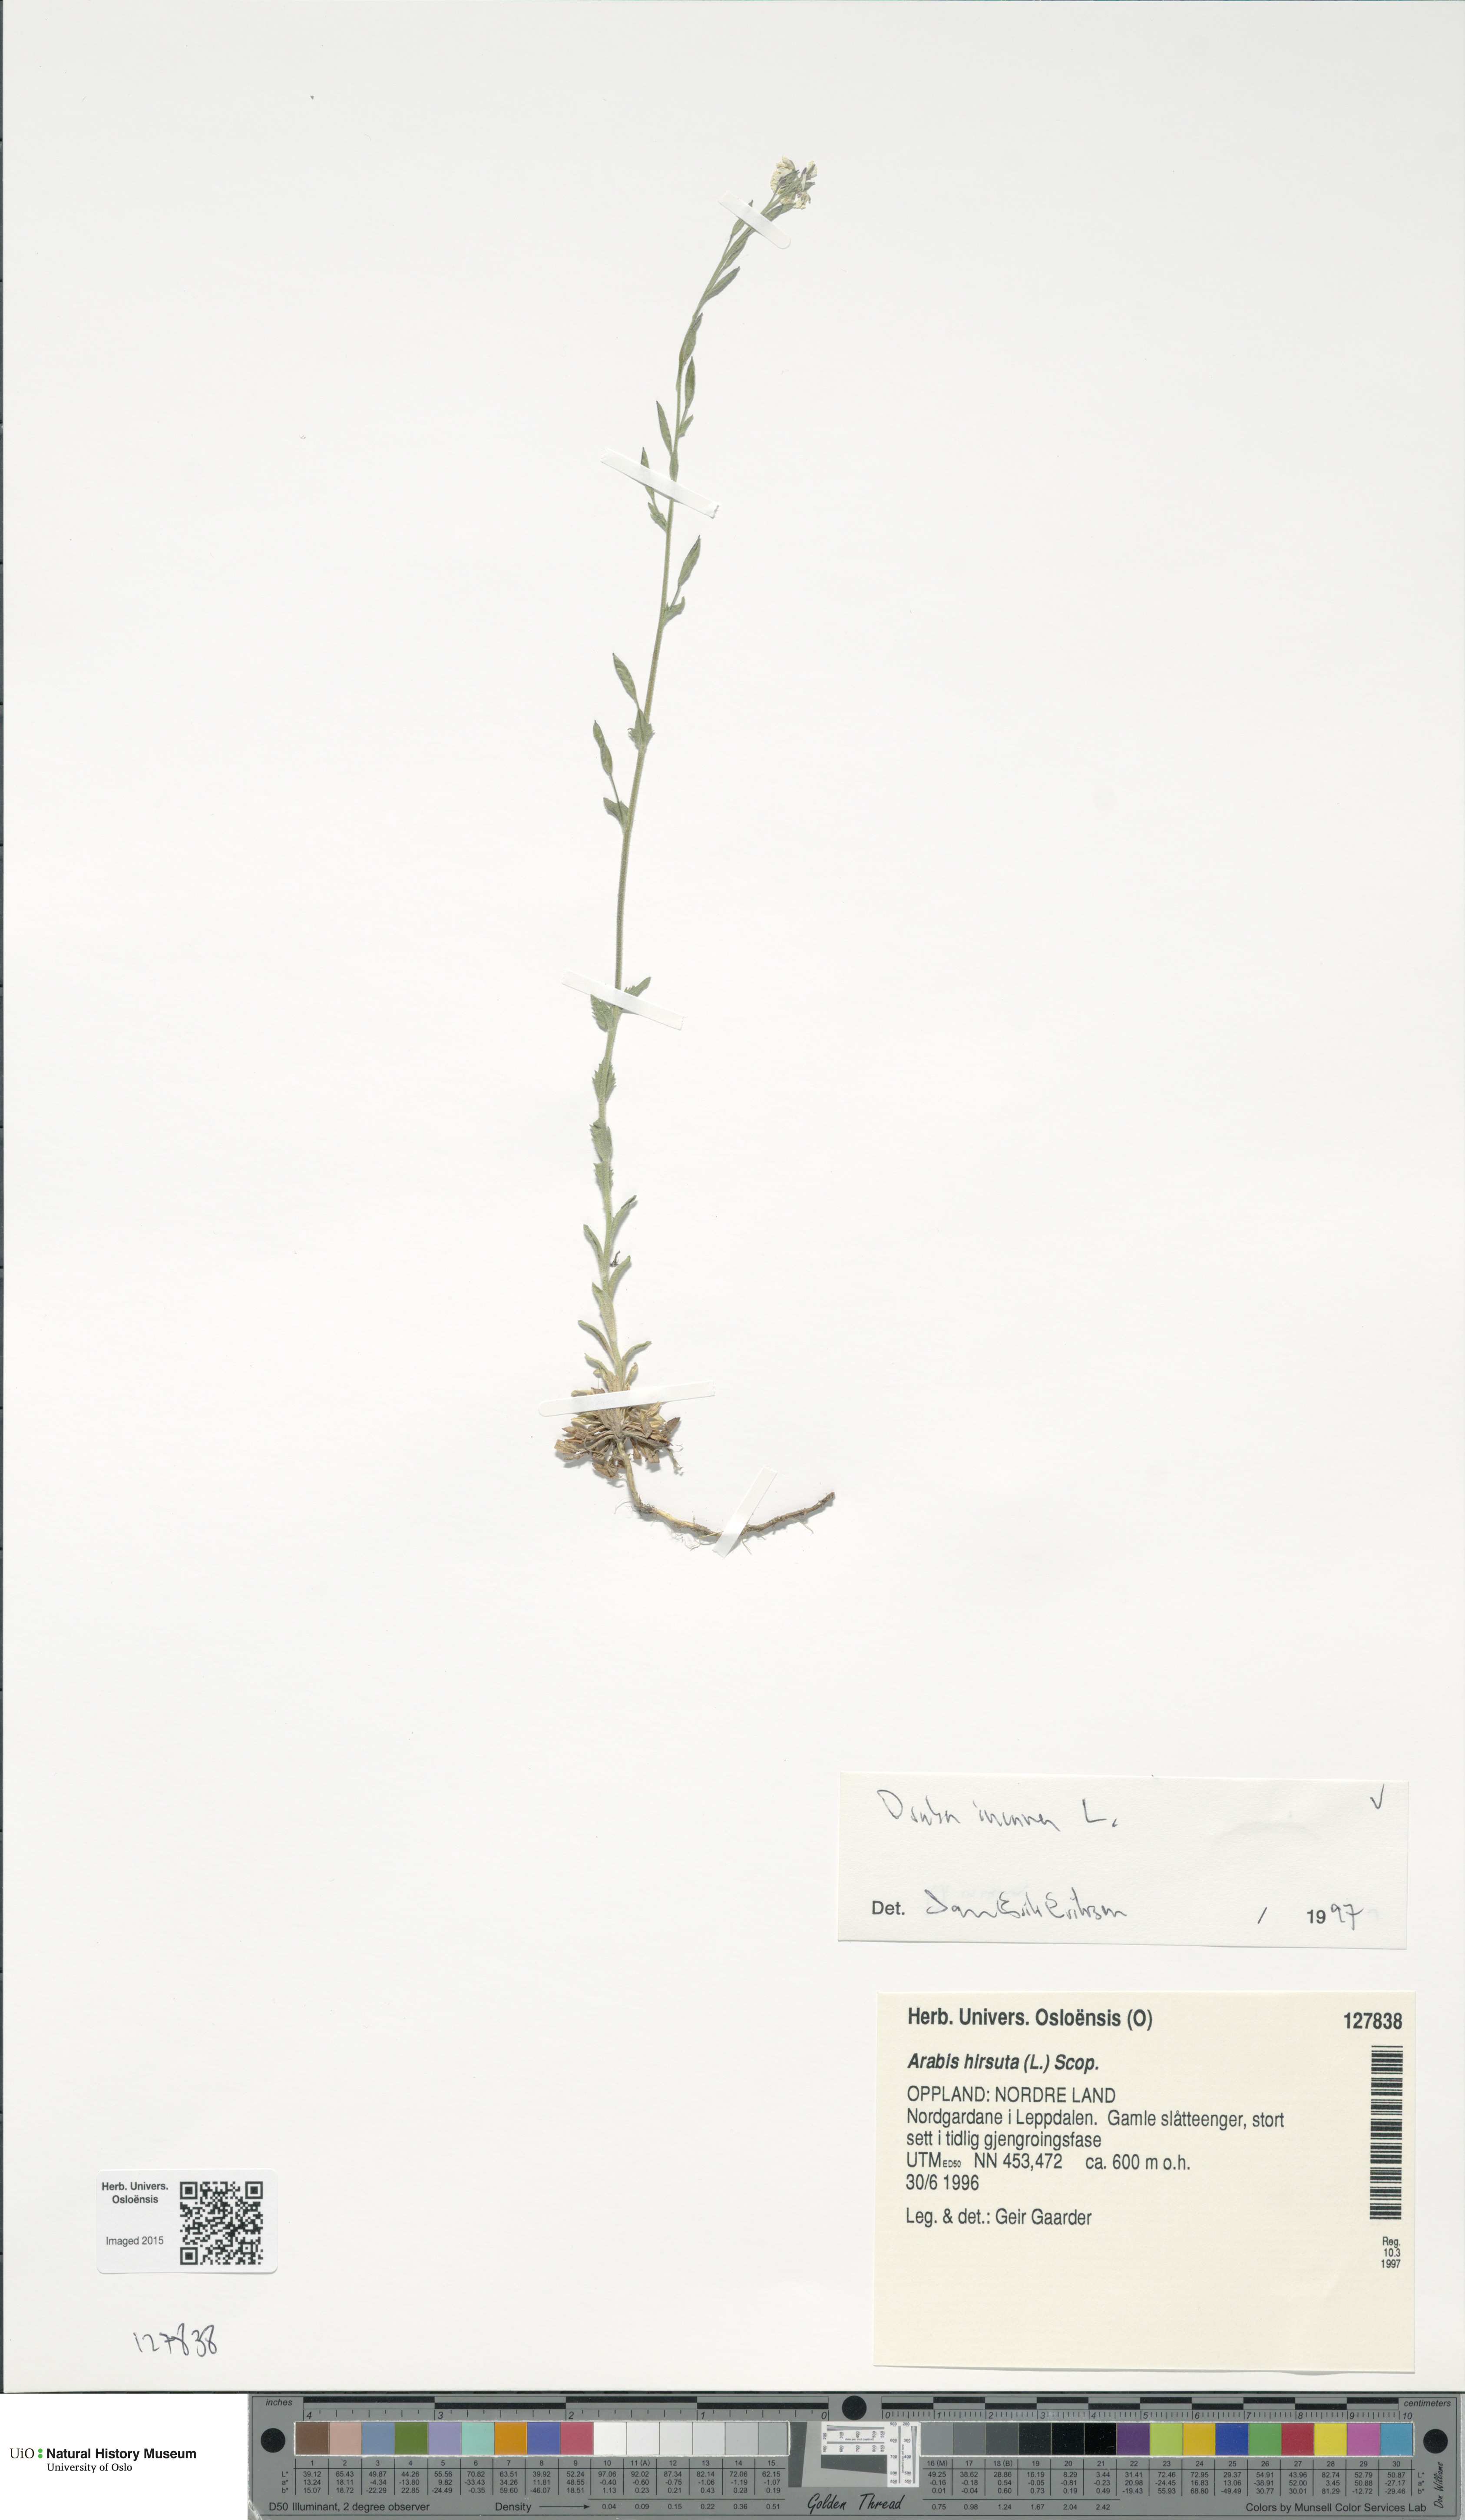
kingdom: Plantae
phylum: Tracheophyta
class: Magnoliopsida
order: Brassicales
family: Brassicaceae
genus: Draba
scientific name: Draba incana
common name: Hoary whitlow-grass
